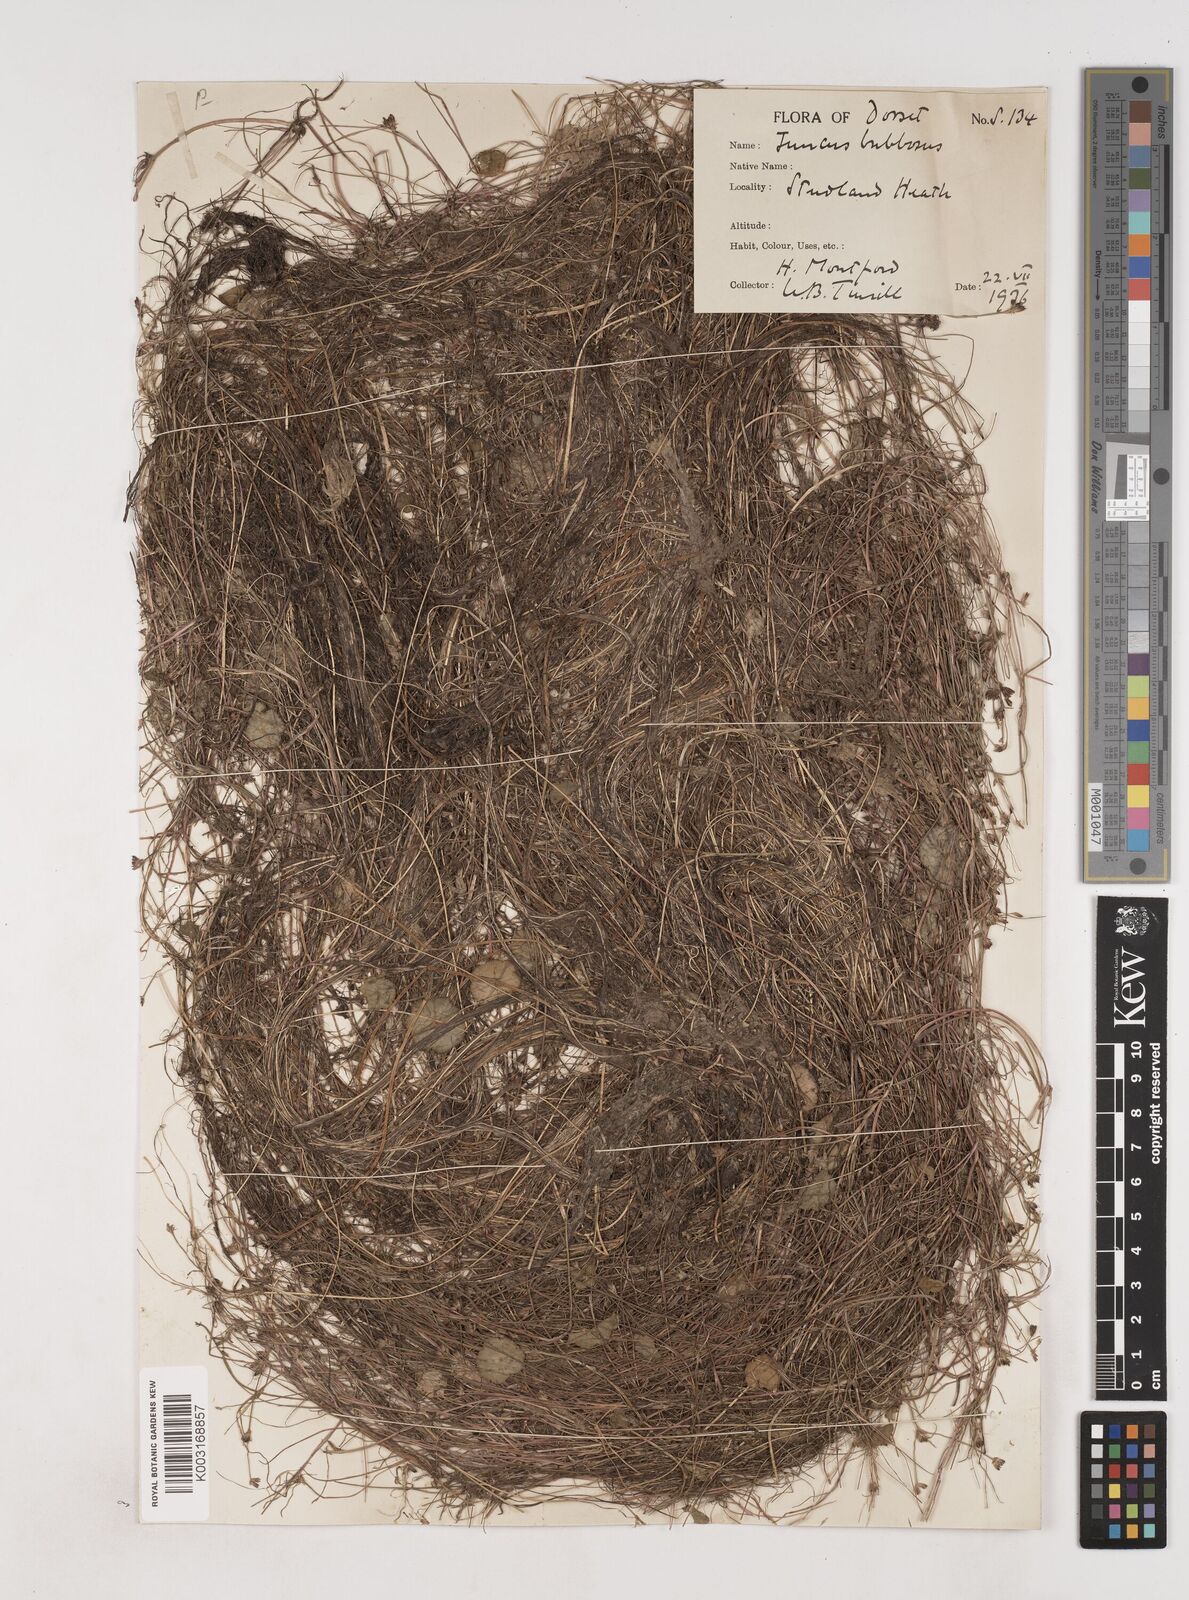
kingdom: Plantae
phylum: Tracheophyta
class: Liliopsida
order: Poales
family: Juncaceae
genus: Juncus
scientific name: Juncus bulbosus
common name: Bulbous rush
